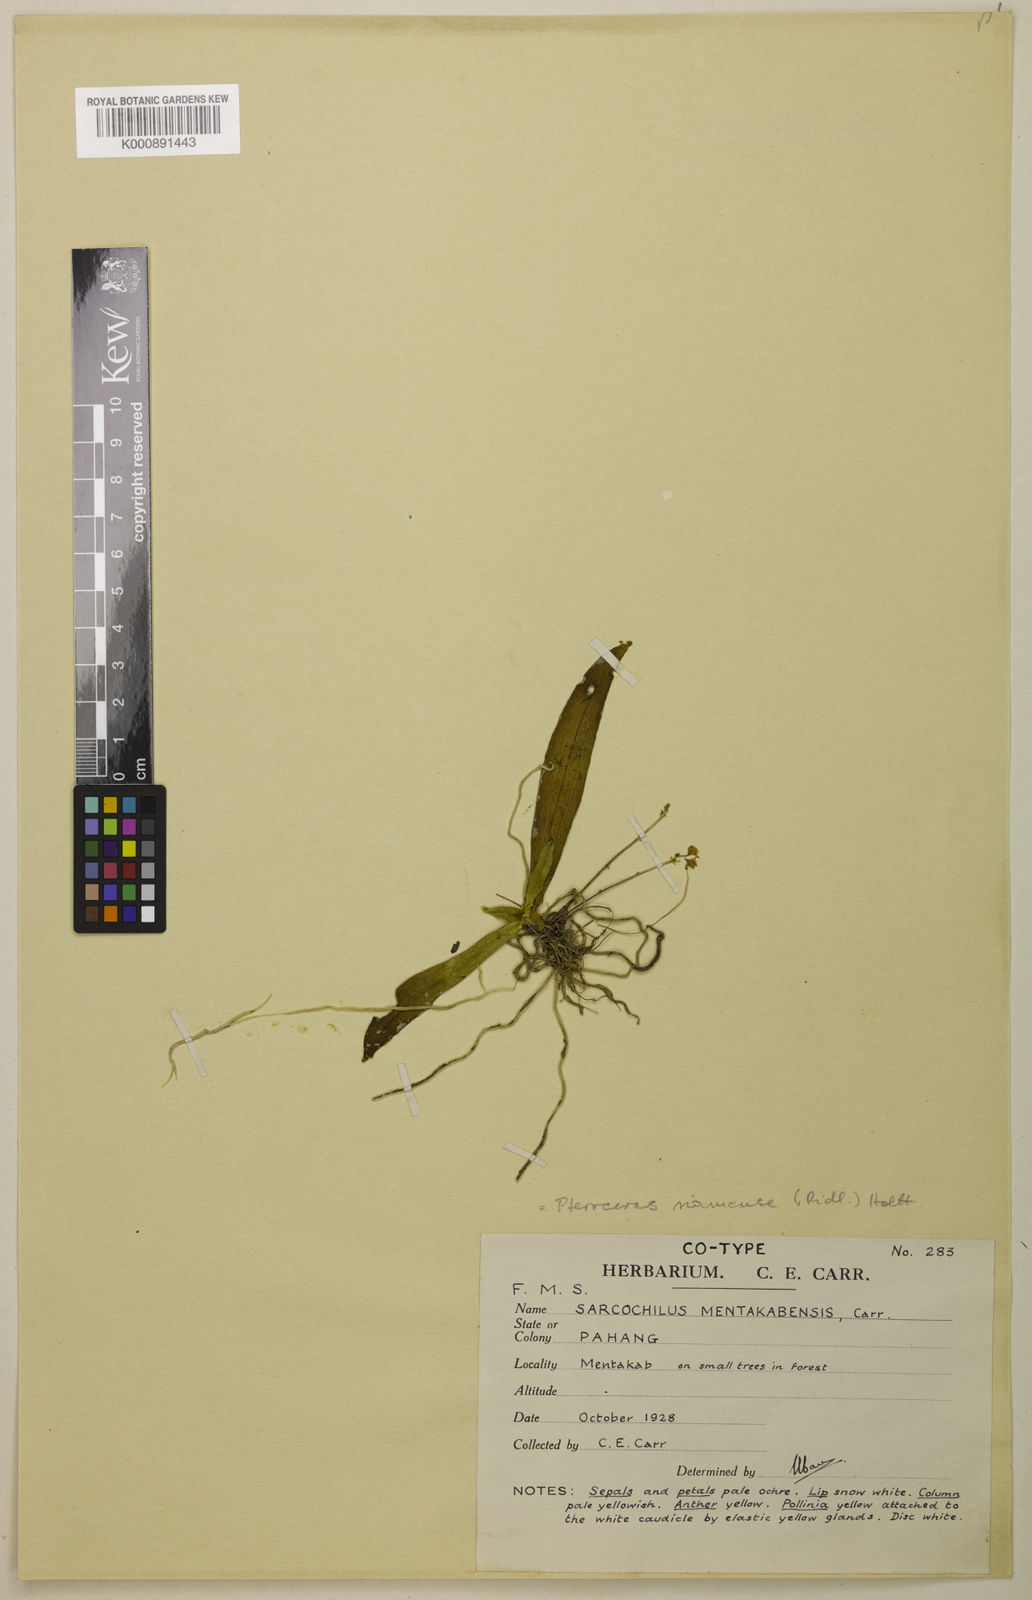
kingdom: Plantae
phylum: Tracheophyta
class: Liliopsida
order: Asparagales
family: Orchidaceae
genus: Grosourdya
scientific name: Grosourdya emarginata
